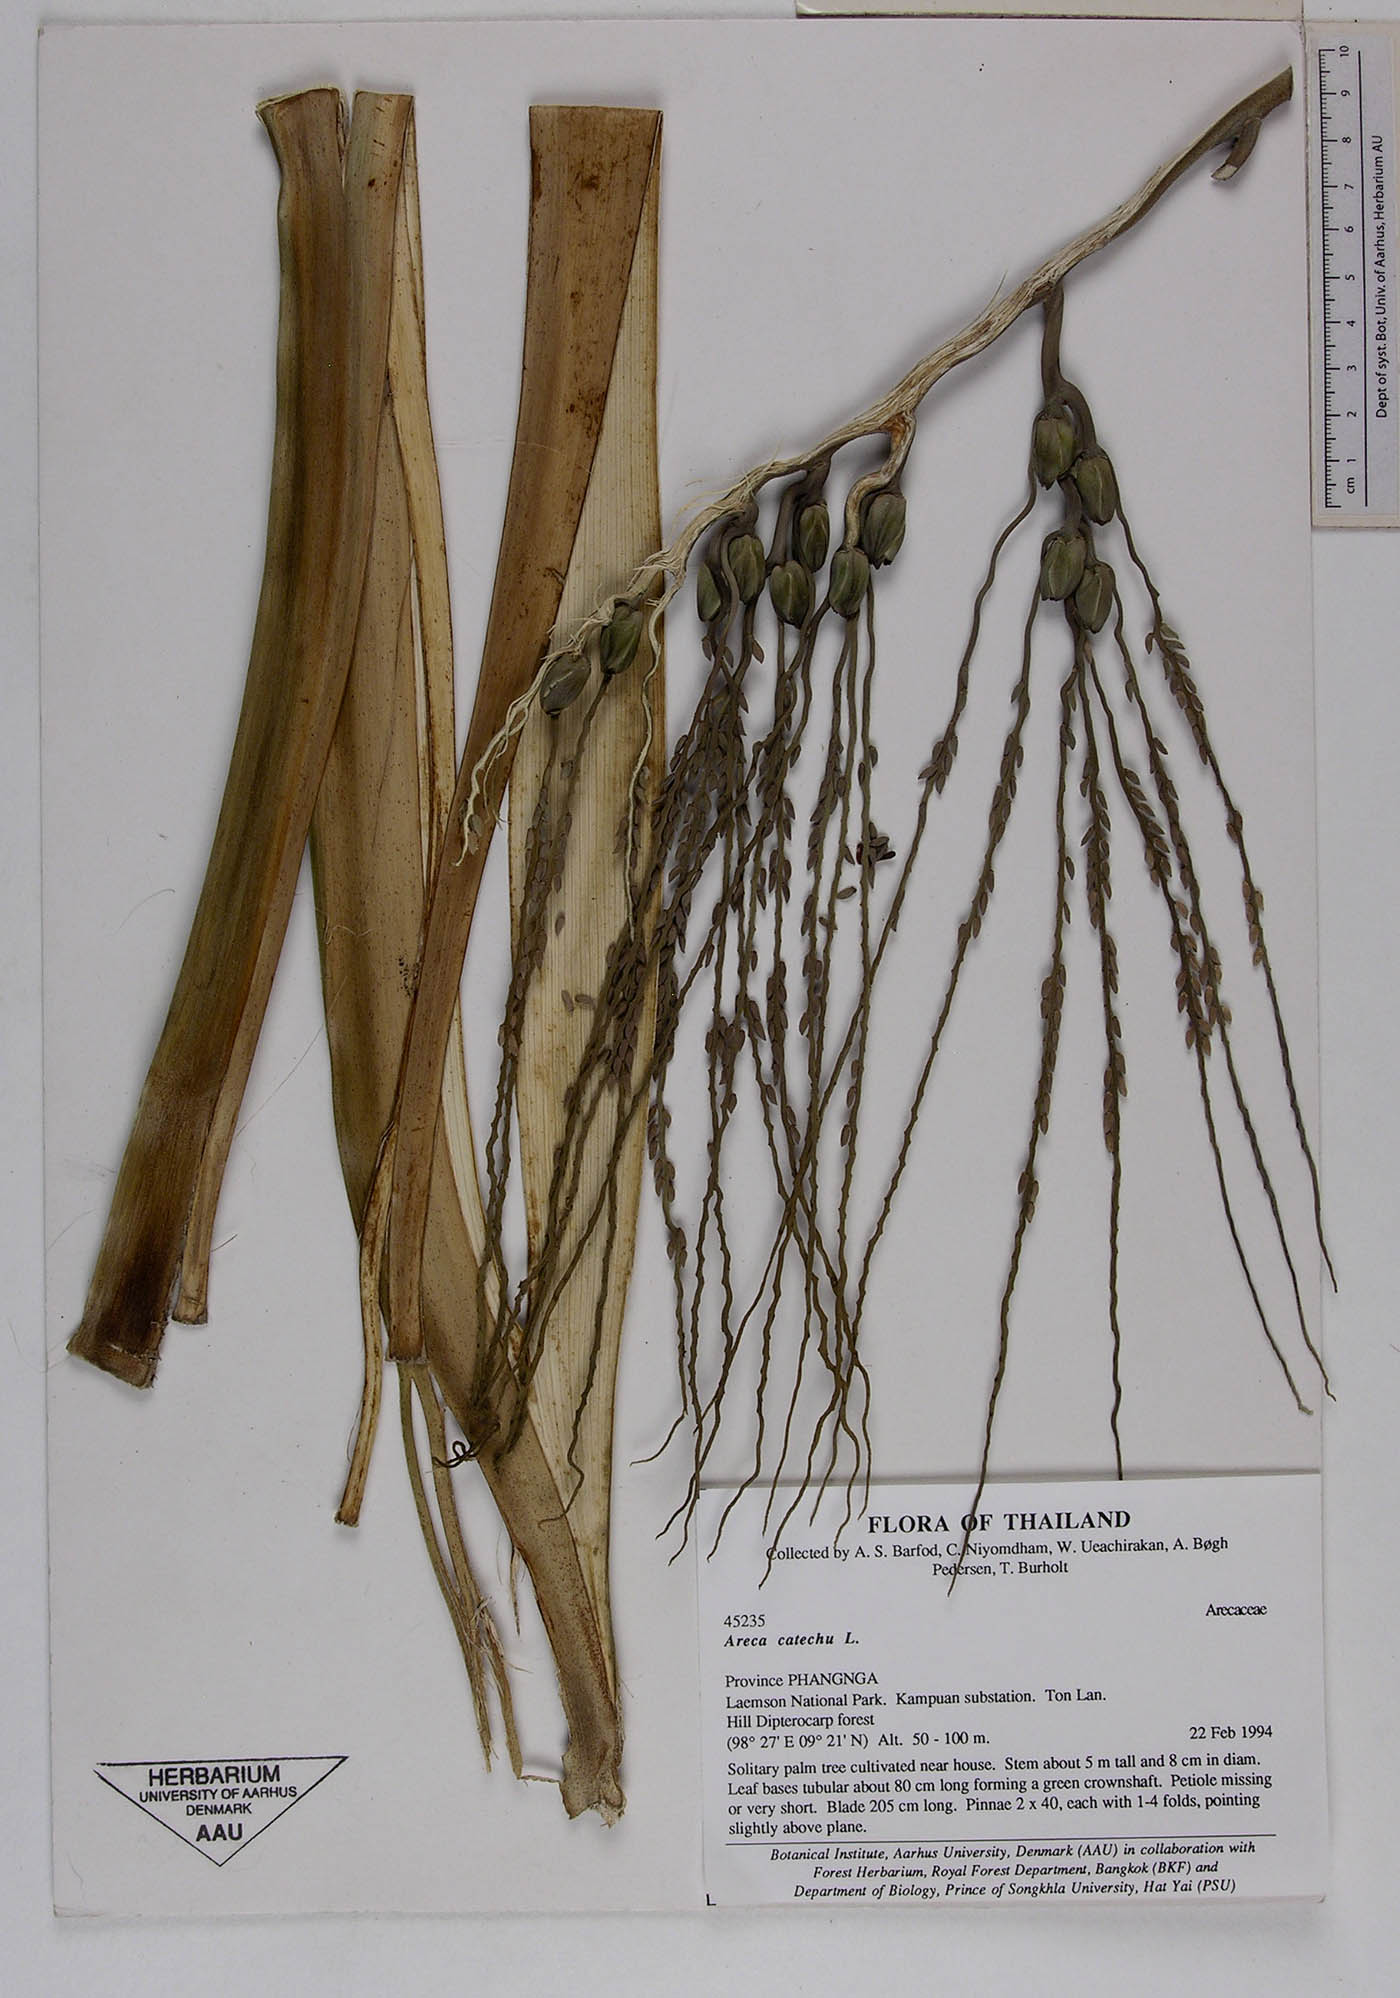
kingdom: Plantae
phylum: Tracheophyta
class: Liliopsida
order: Arecales
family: Arecaceae
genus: Areca
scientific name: Areca catechu
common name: Indian-nut
